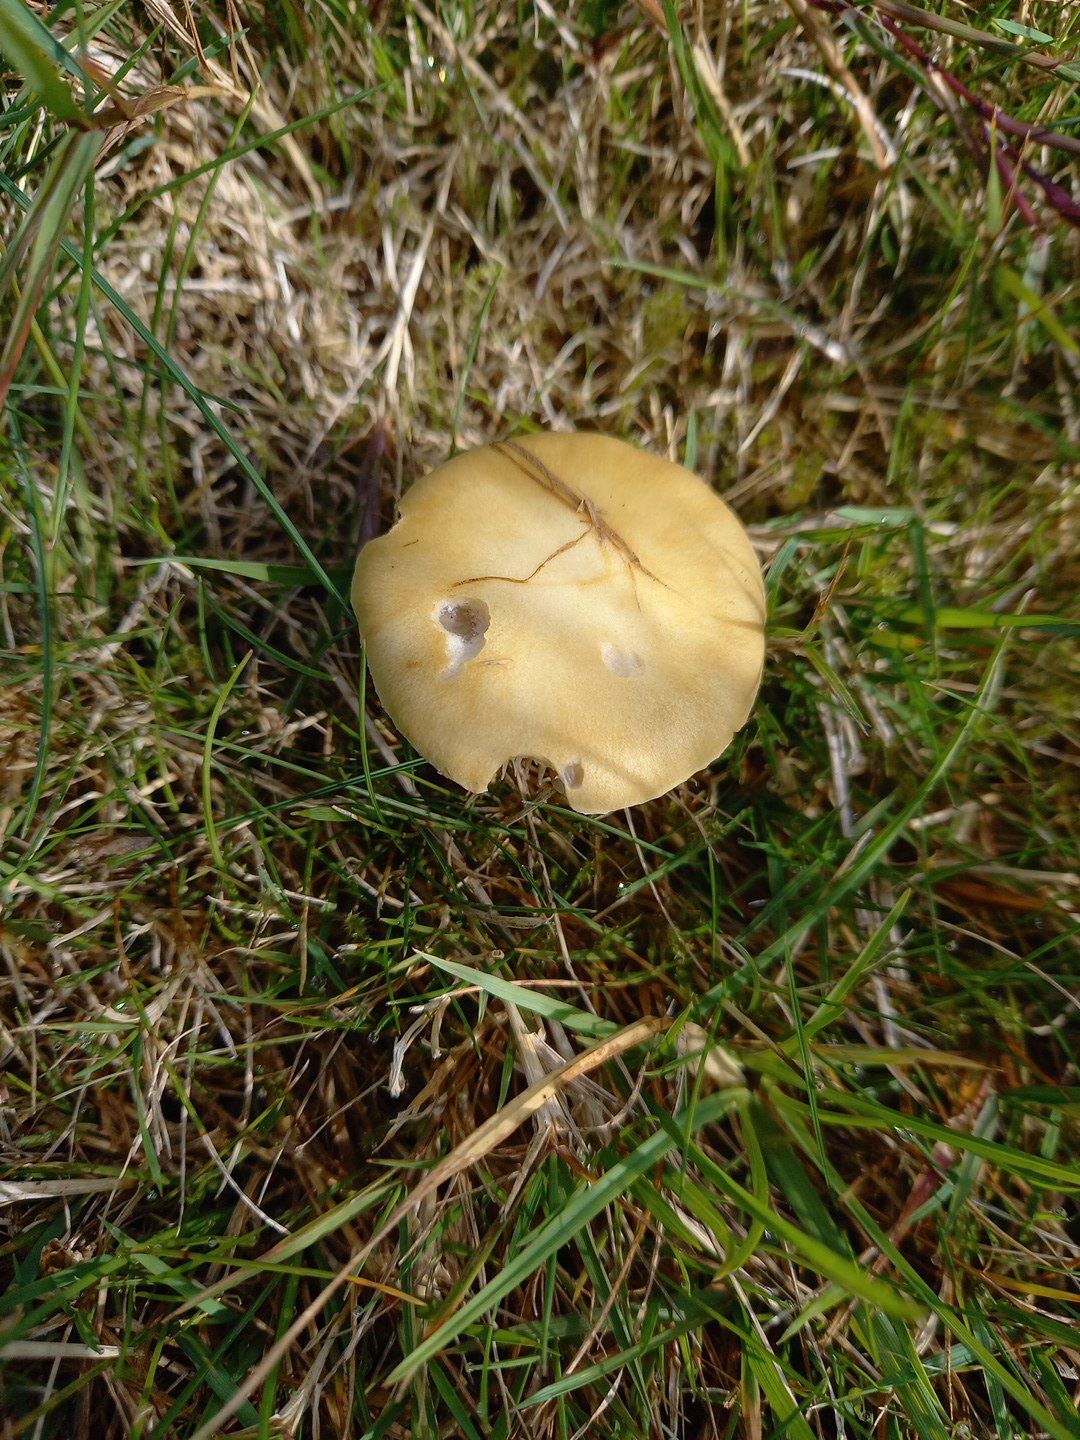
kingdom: Fungi
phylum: Basidiomycota
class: Agaricomycetes
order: Agaricales
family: Hymenogastraceae
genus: Psilocybe
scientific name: Psilocybe coronilla
